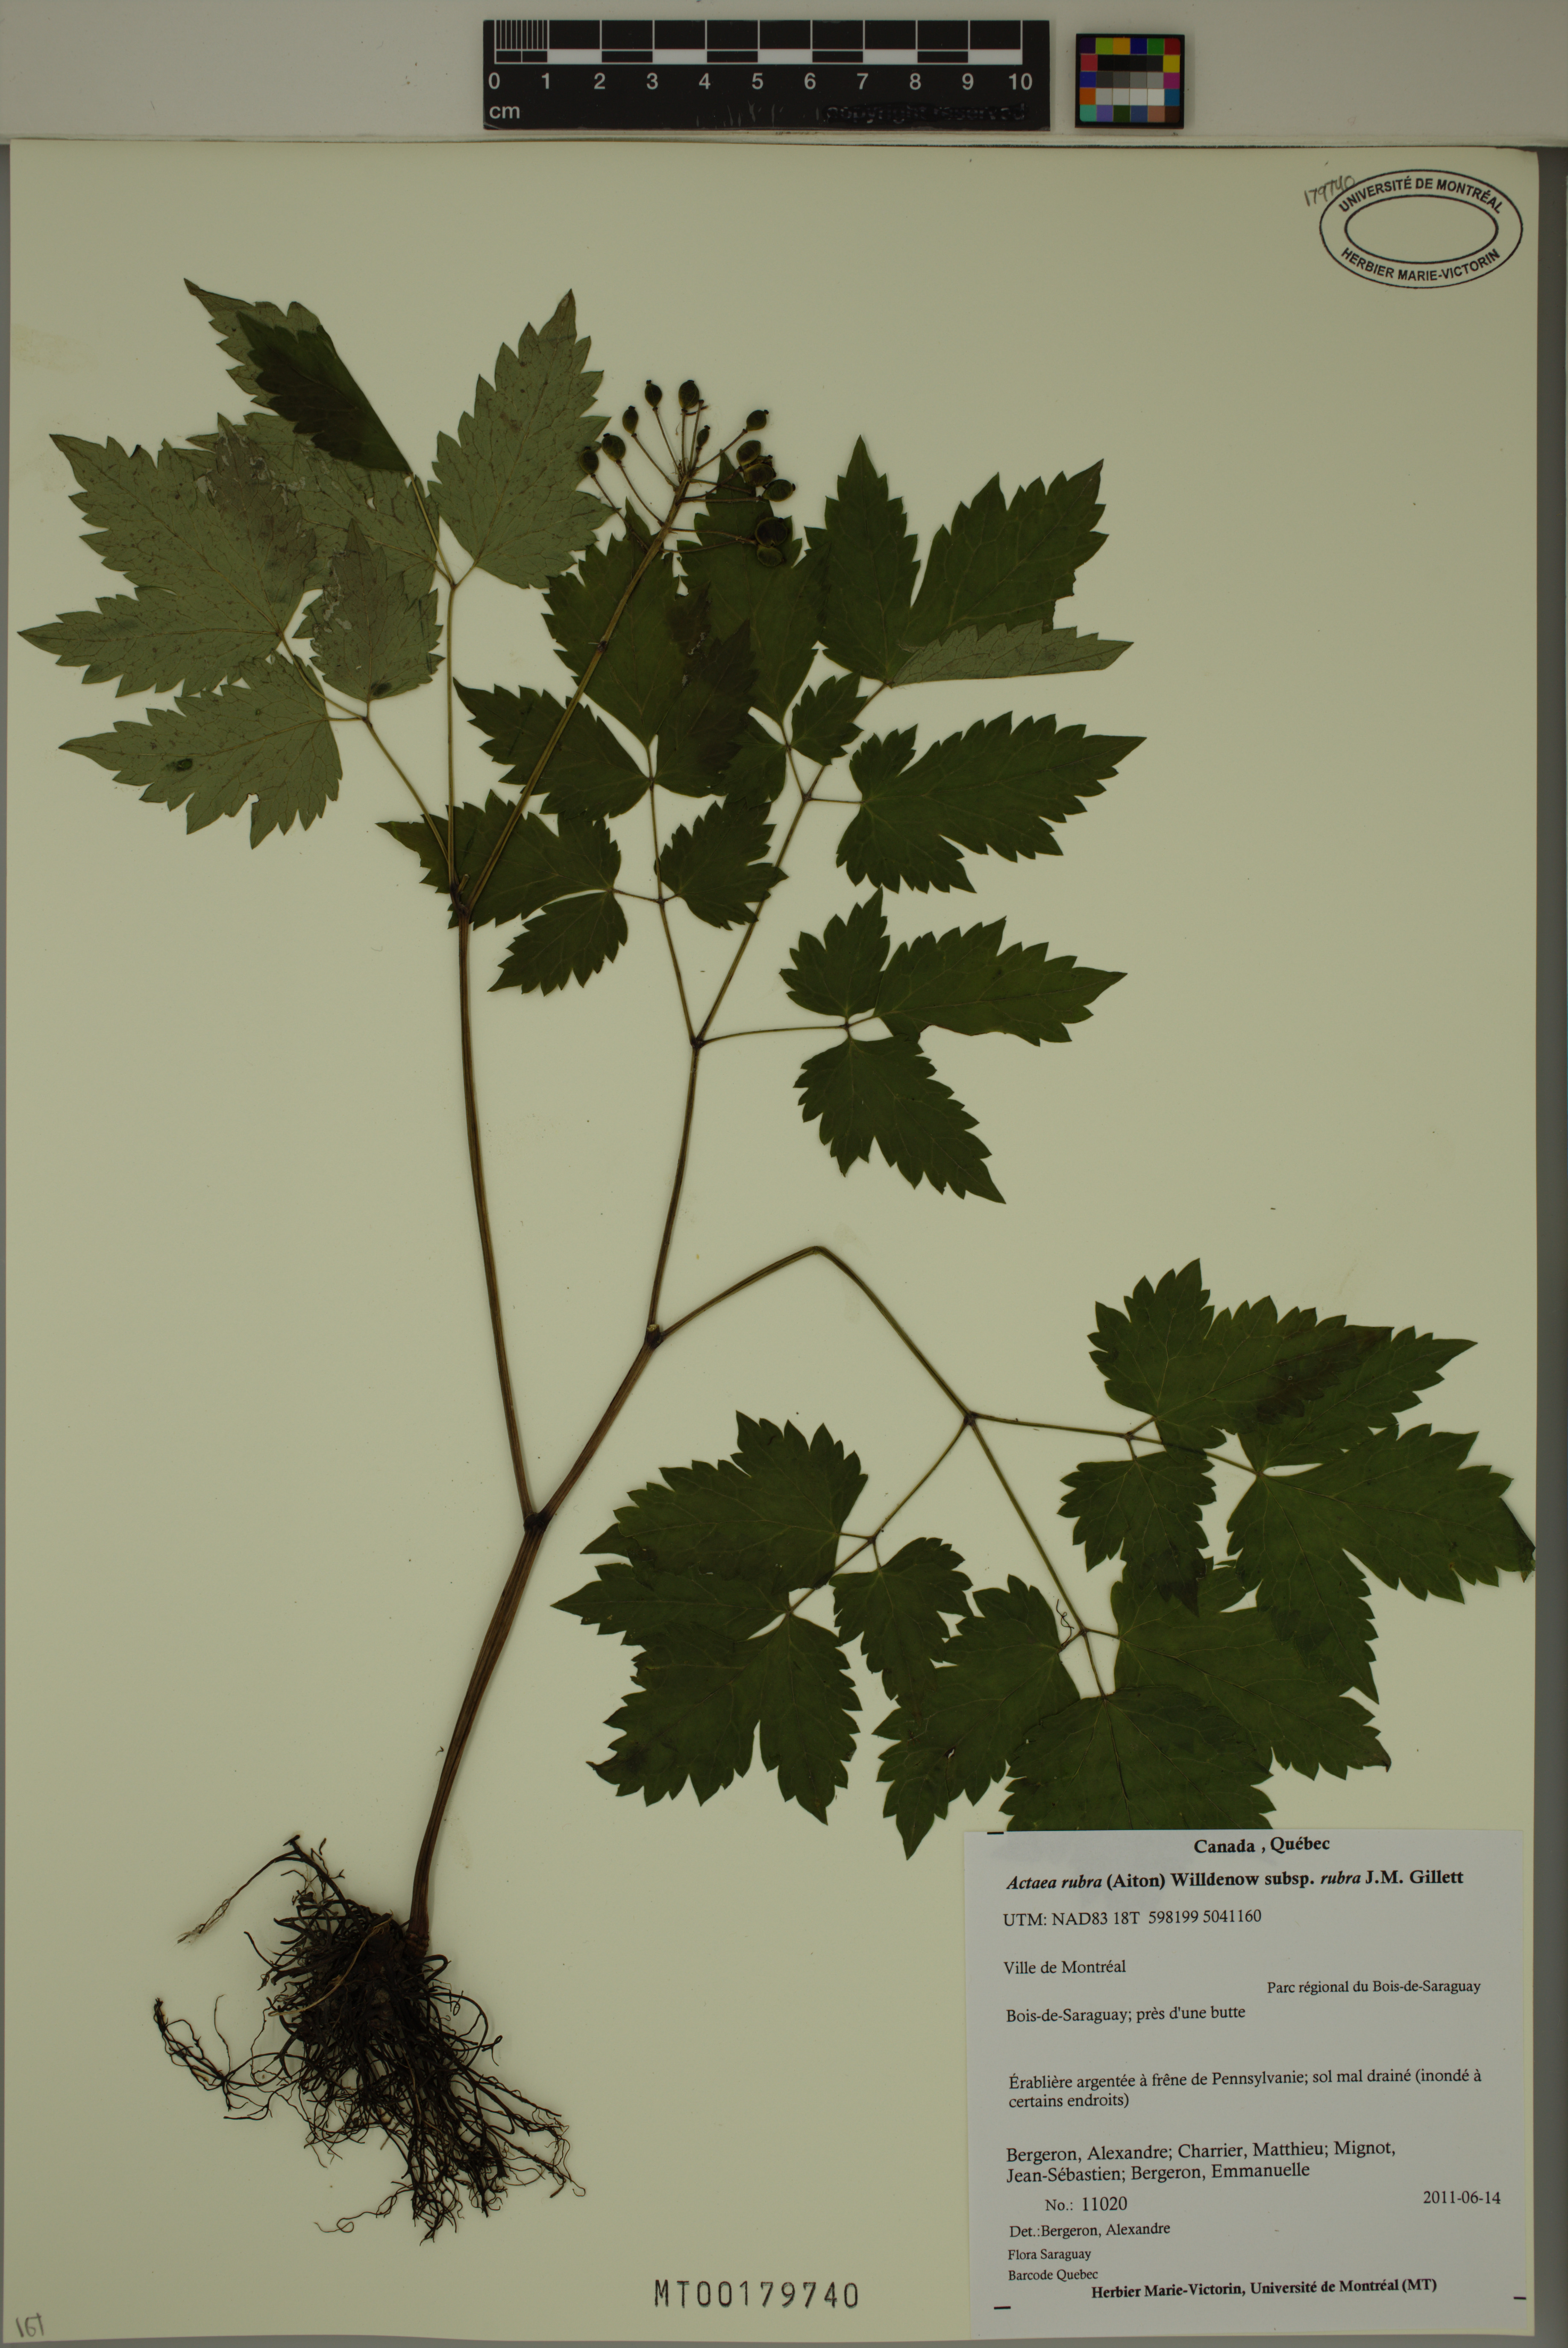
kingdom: Plantae
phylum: Tracheophyta
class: Magnoliopsida
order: Ranunculales
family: Ranunculaceae
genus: Actaea
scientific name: Actaea rubra
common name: Red baneberry
